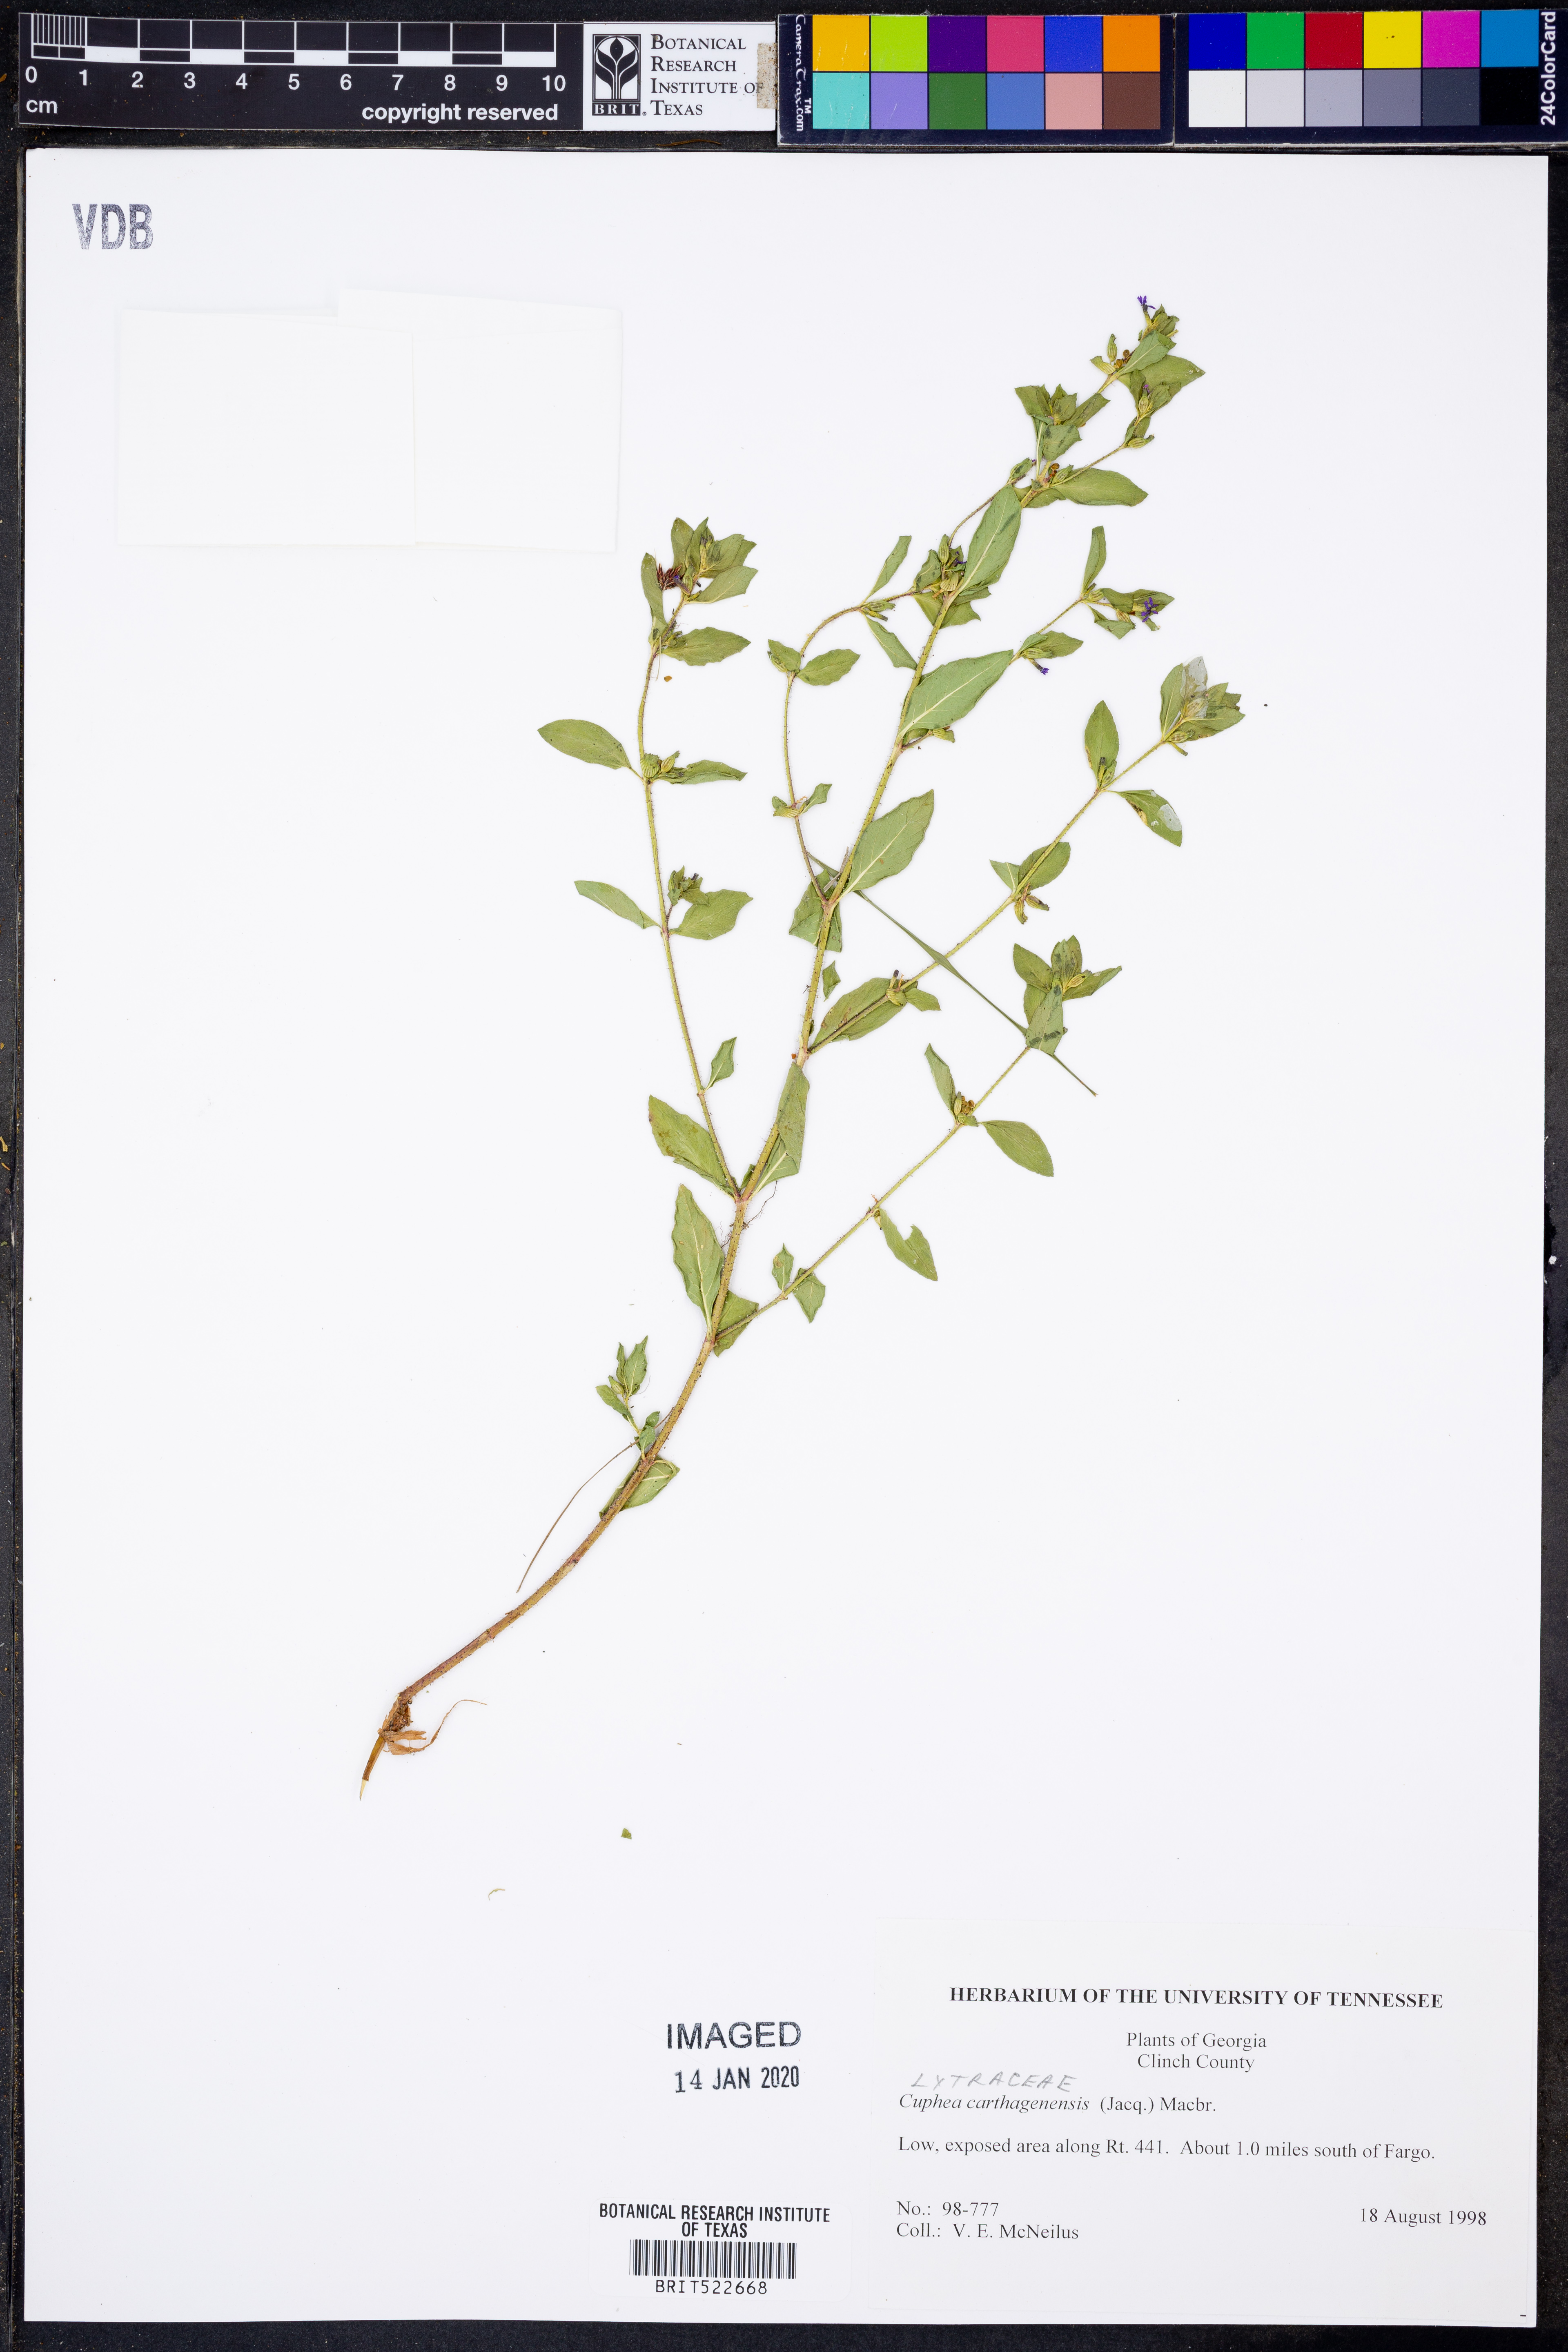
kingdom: Plantae
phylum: Tracheophyta
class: Magnoliopsida
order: Myrtales
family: Lythraceae
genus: Cuphea
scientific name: Cuphea carthagenensis
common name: Colombian waxweed
